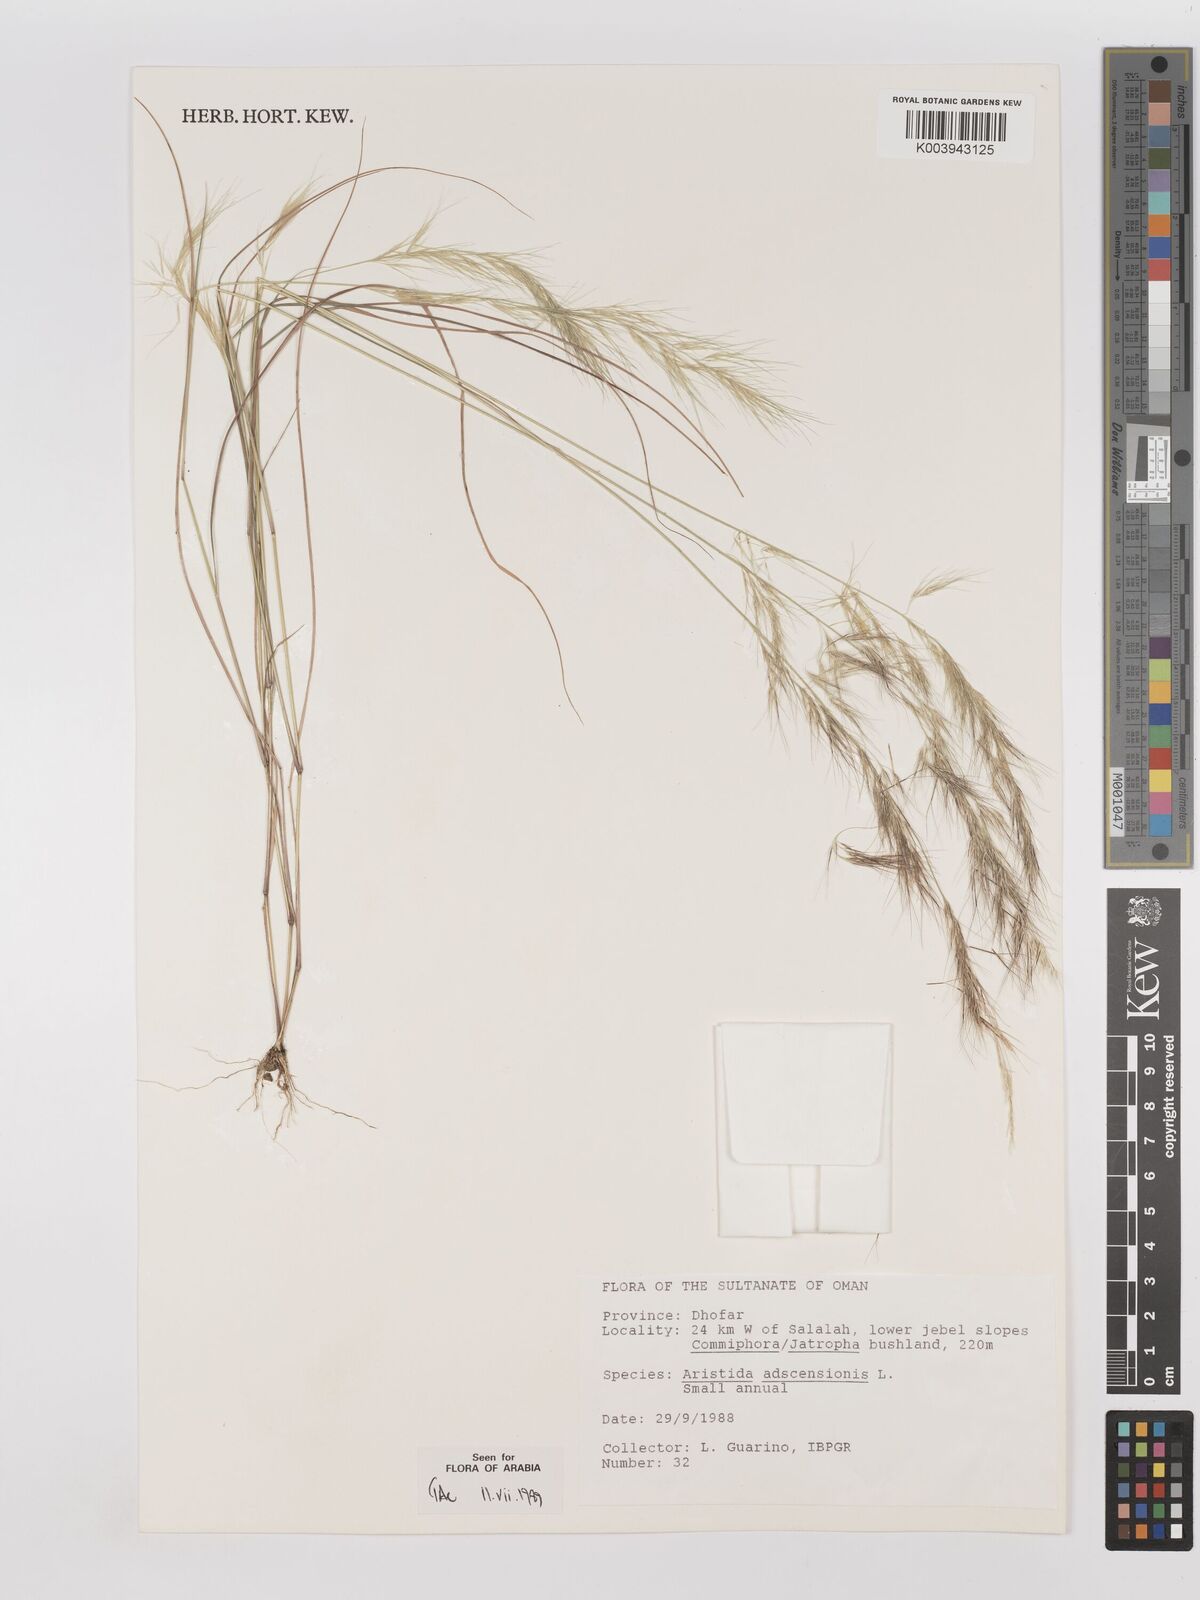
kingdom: Plantae
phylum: Tracheophyta
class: Liliopsida
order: Poales
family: Poaceae
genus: Aristida
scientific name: Aristida adscensionis
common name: Sixweeks threeawn
